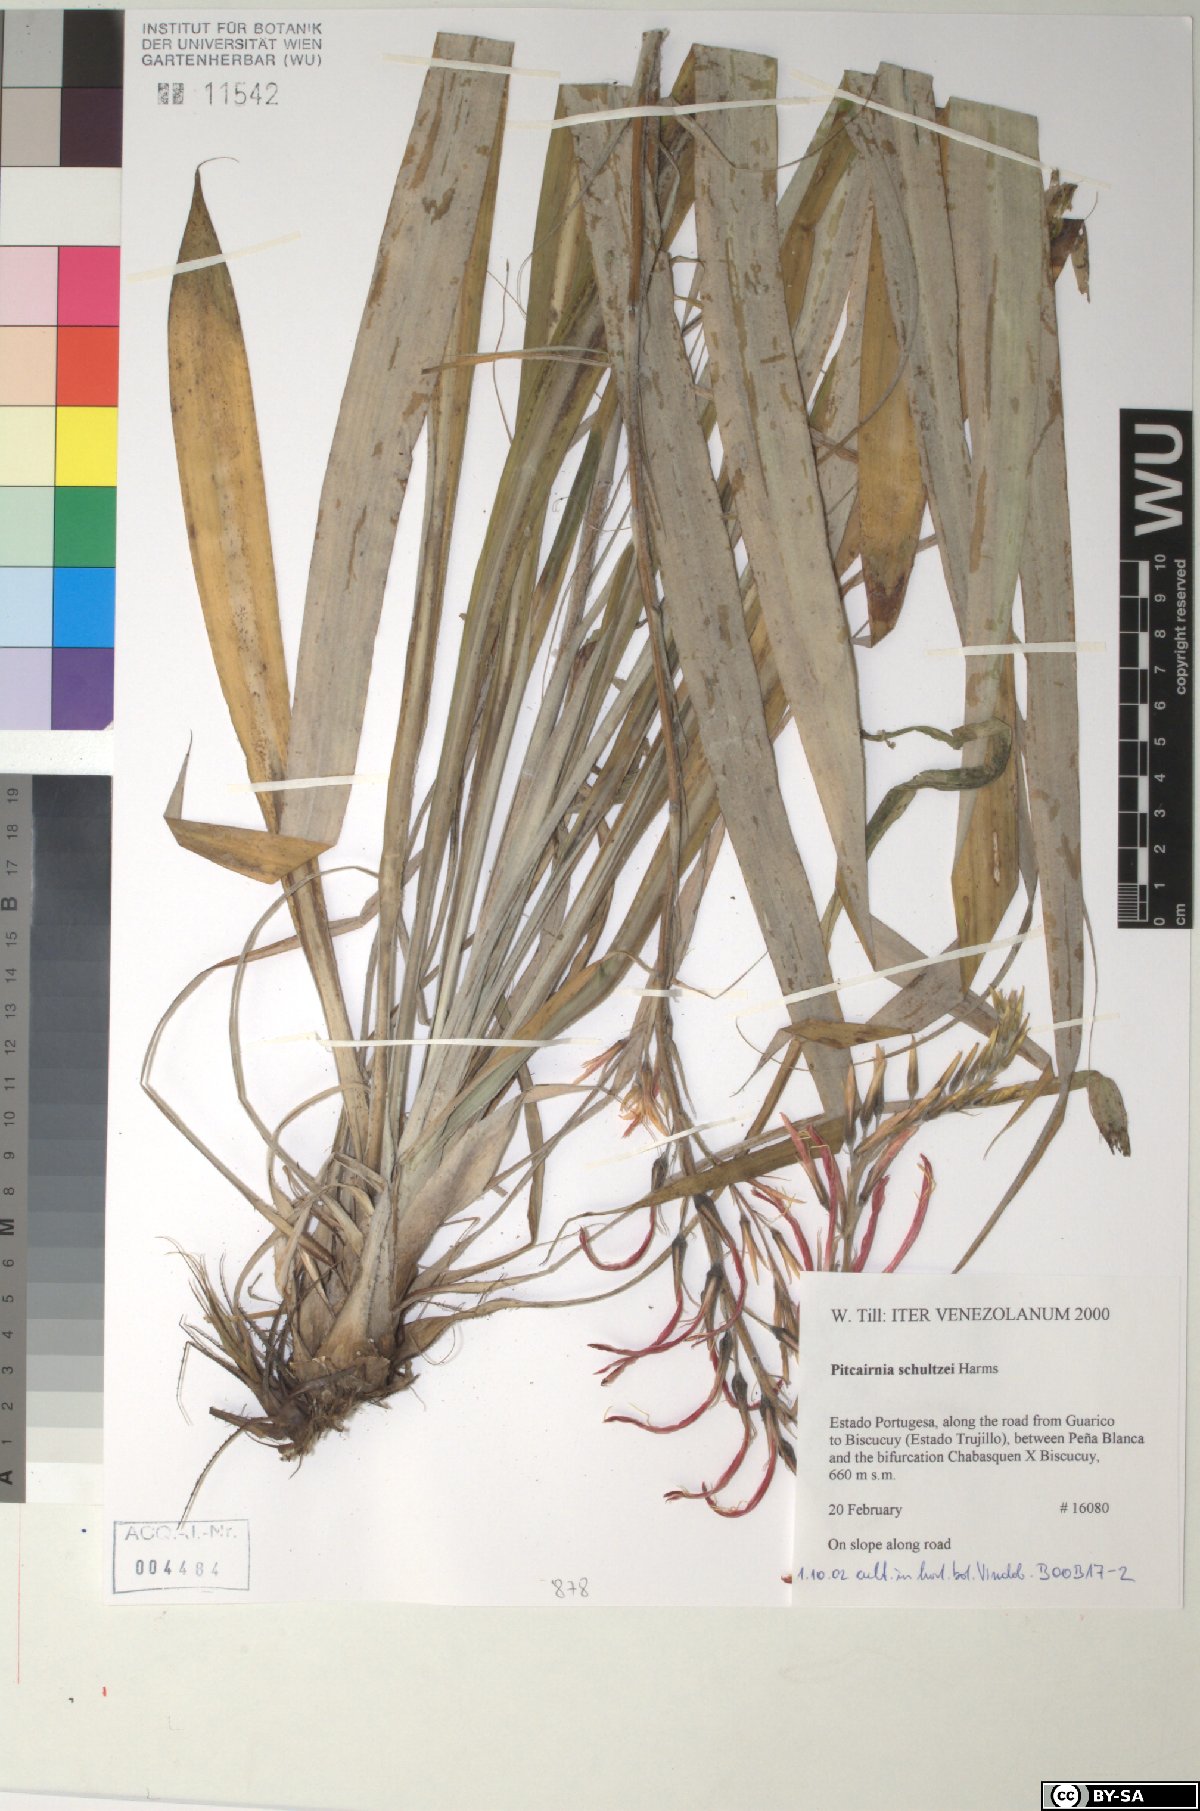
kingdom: Plantae
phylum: Tracheophyta
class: Liliopsida
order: Poales
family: Bromeliaceae
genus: Pitcairnia
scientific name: Pitcairnia schultzei
